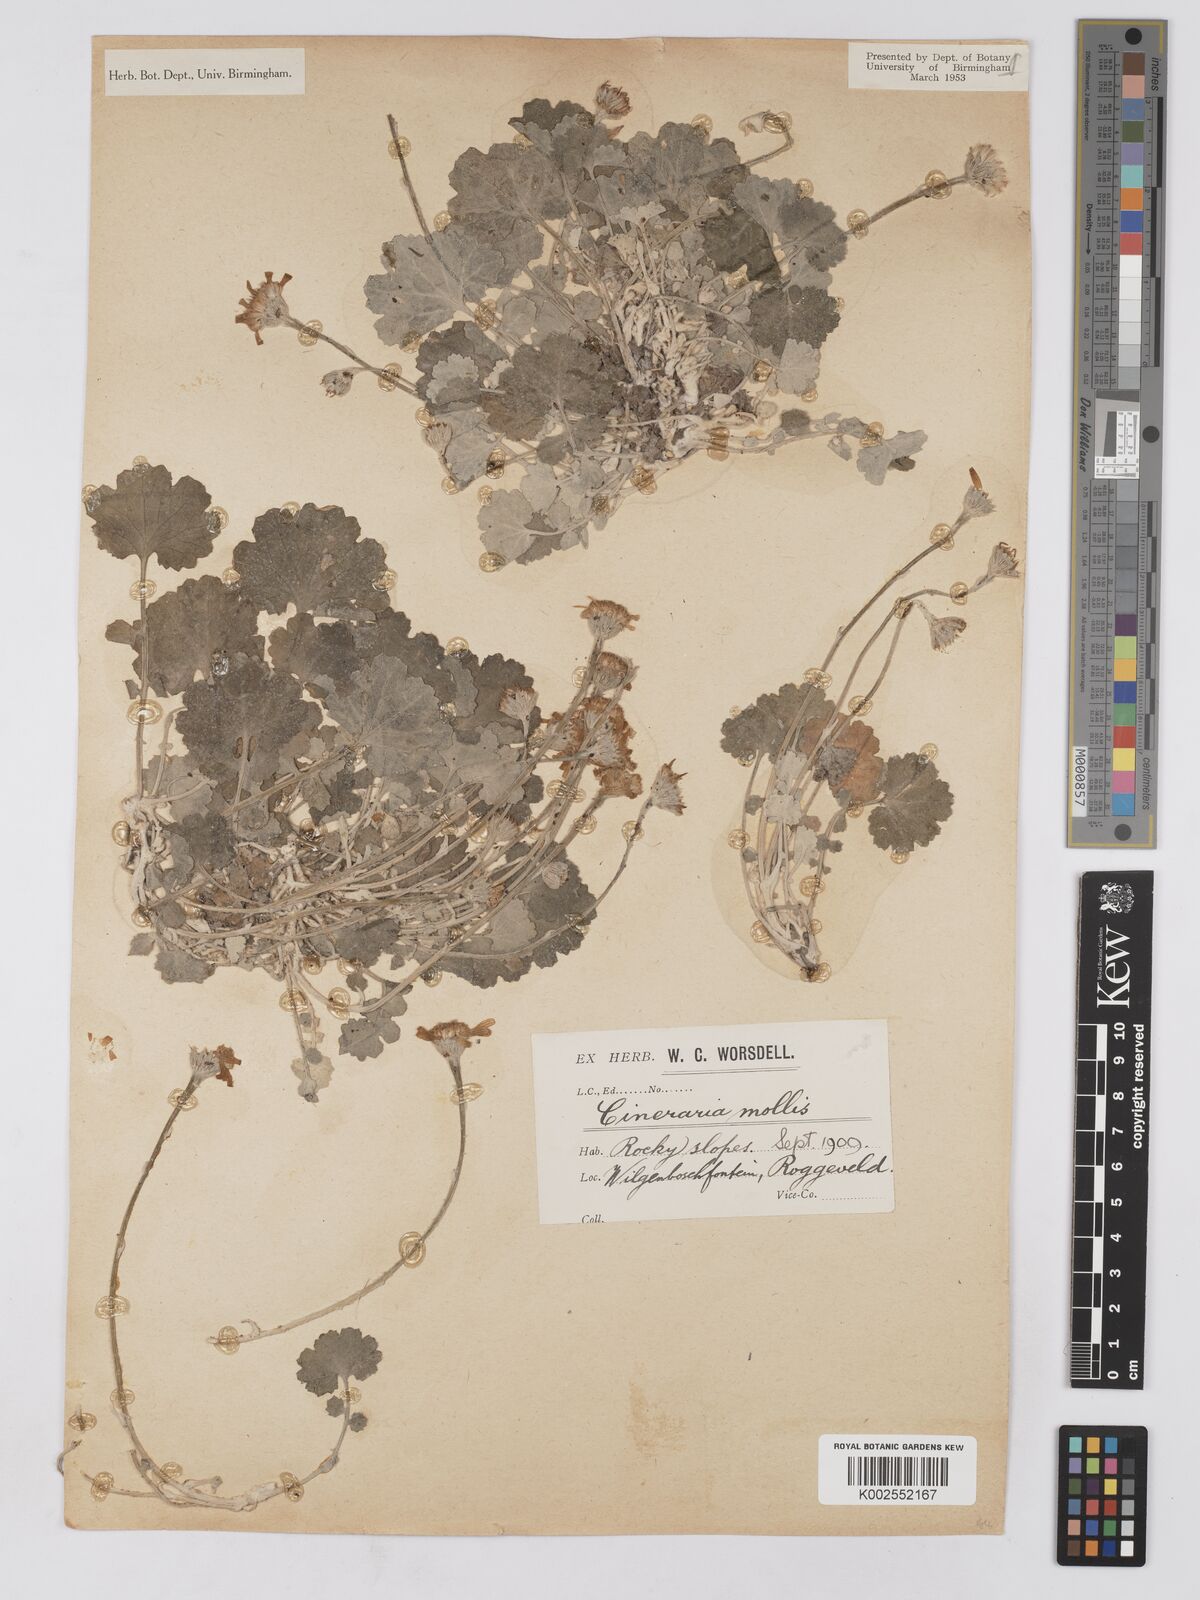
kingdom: Plantae
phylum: Tracheophyta
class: Magnoliopsida
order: Asterales
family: Asteraceae
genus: Cineraria
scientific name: Cineraria mollis
